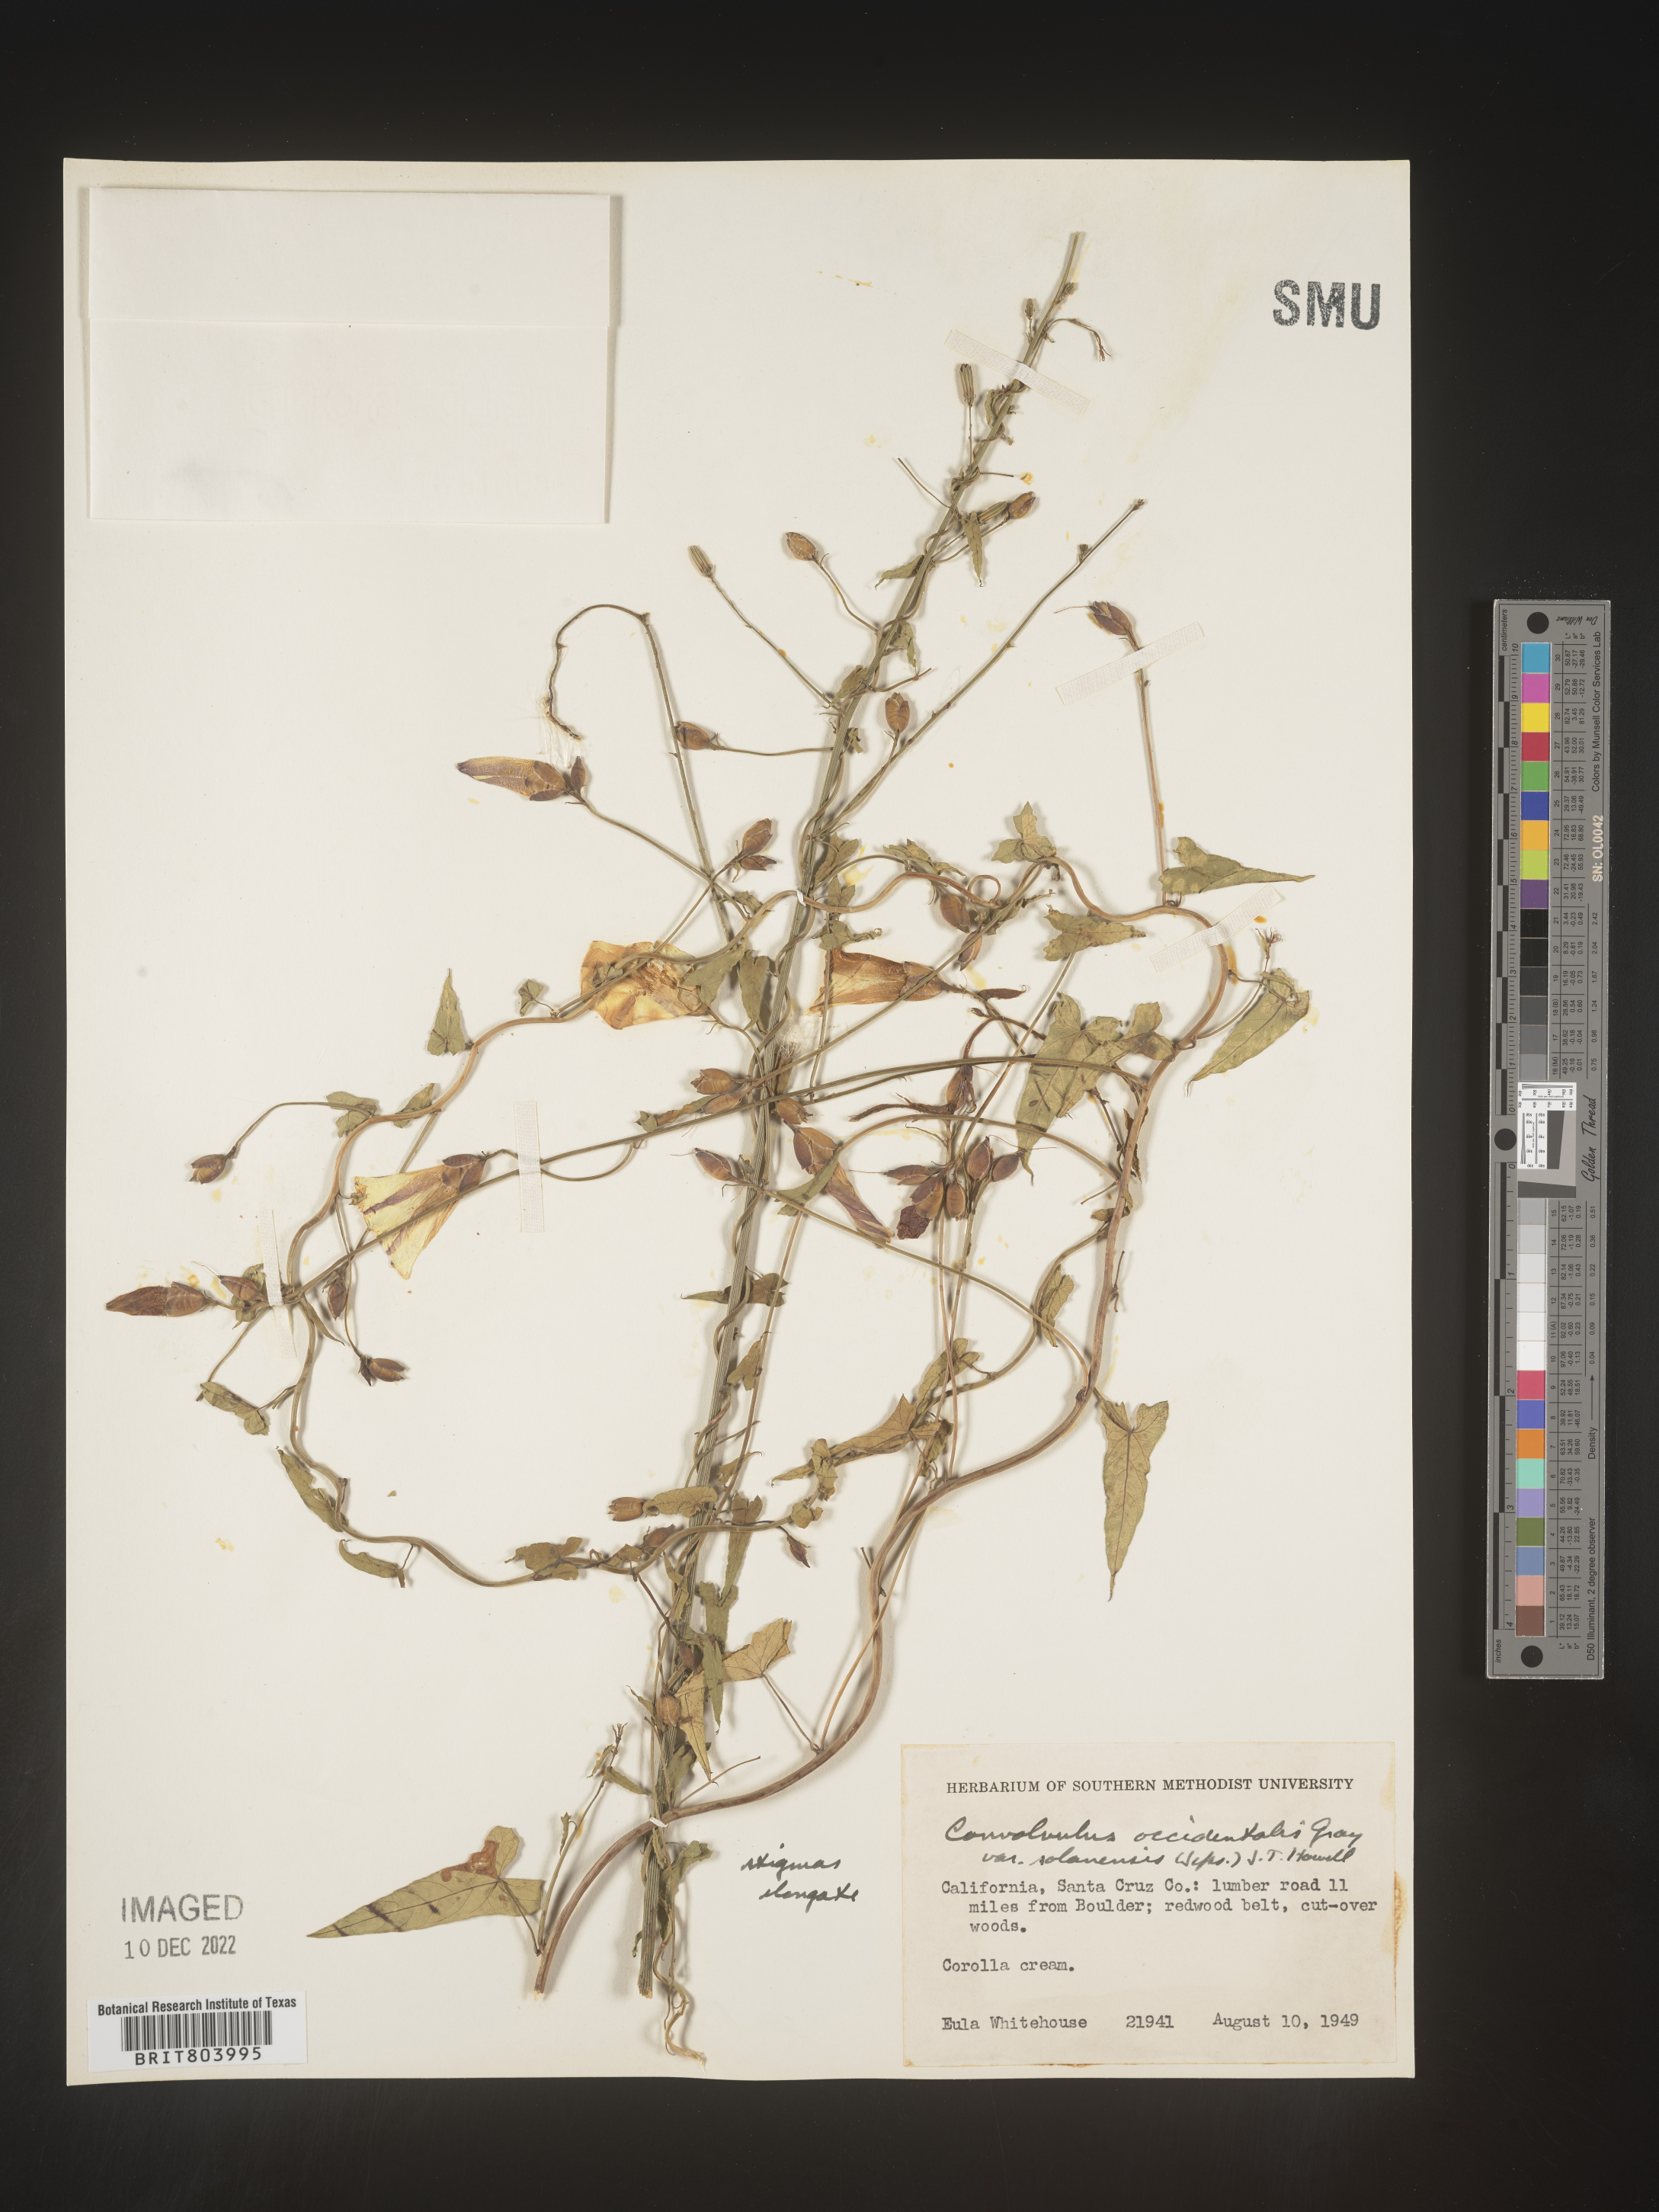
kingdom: Plantae
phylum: Tracheophyta
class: Magnoliopsida
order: Solanales
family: Convolvulaceae
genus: Calystegia
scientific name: Calystegia
